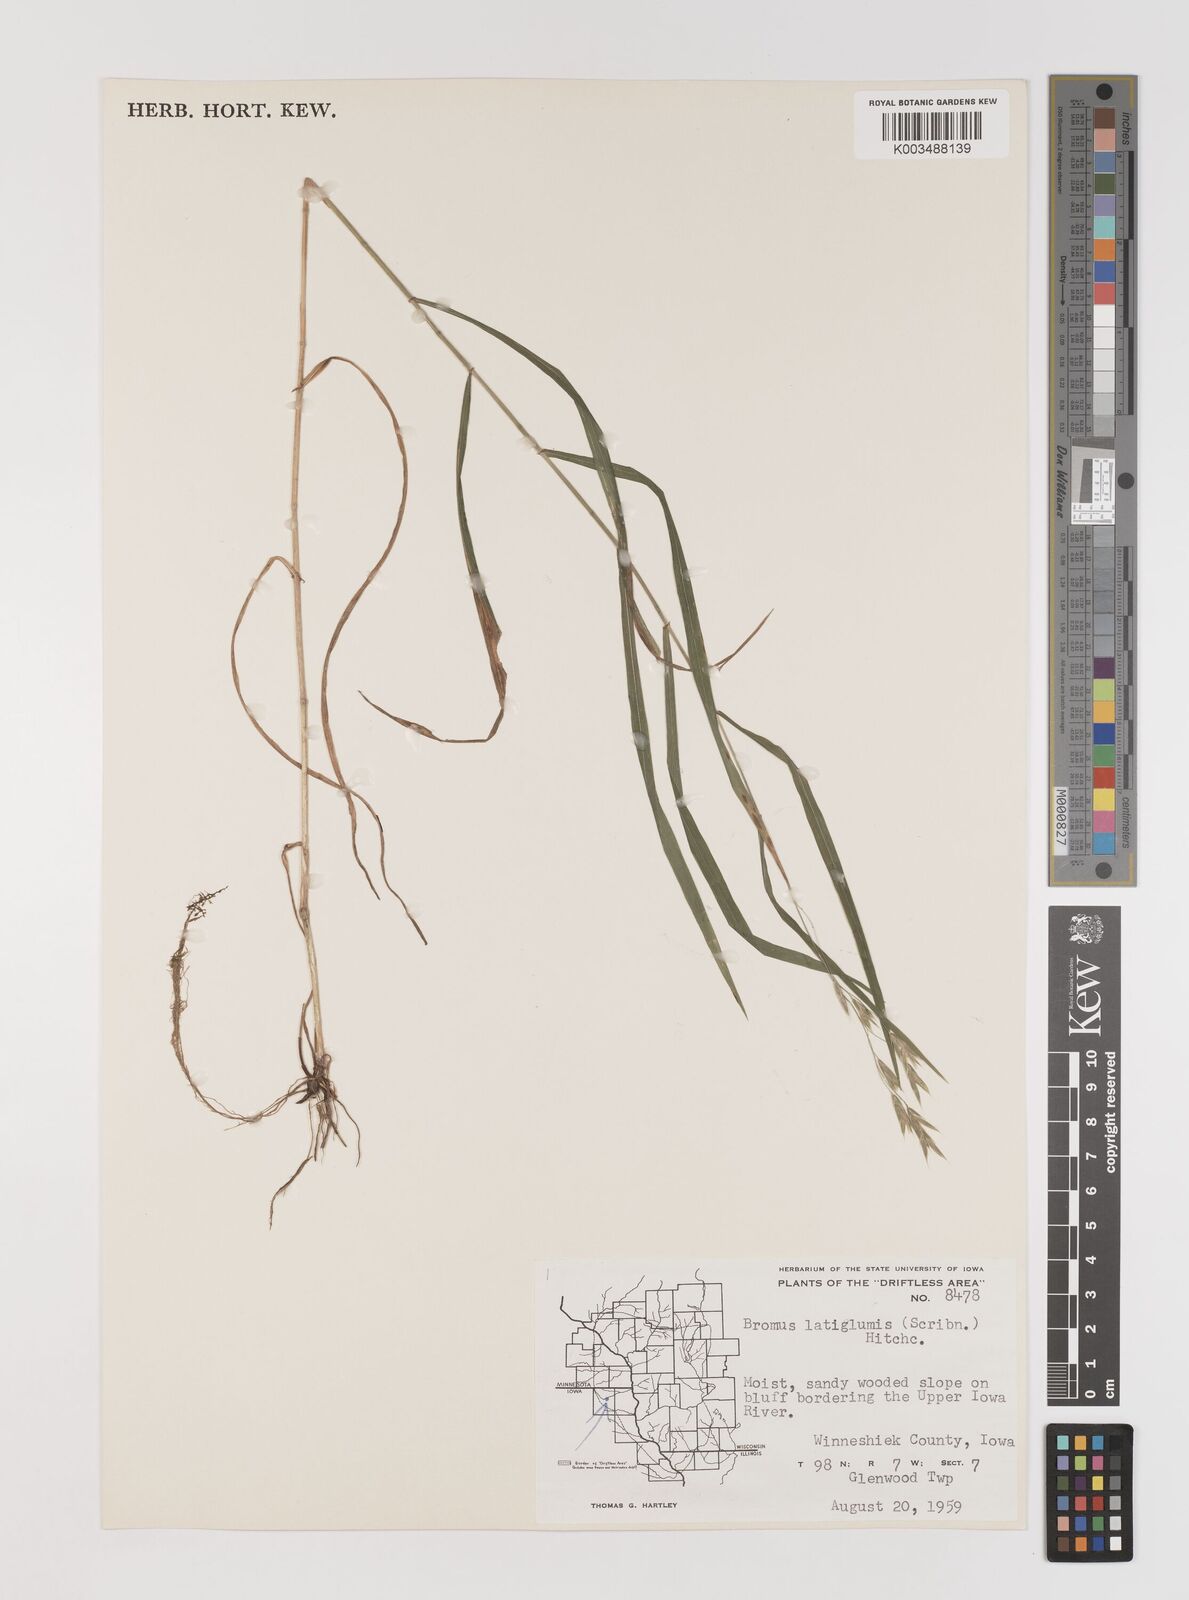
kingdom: Plantae
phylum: Tracheophyta
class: Liliopsida
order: Poales
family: Poaceae
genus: Bromus
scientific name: Bromus latiglumis
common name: Broad-glumed brome
